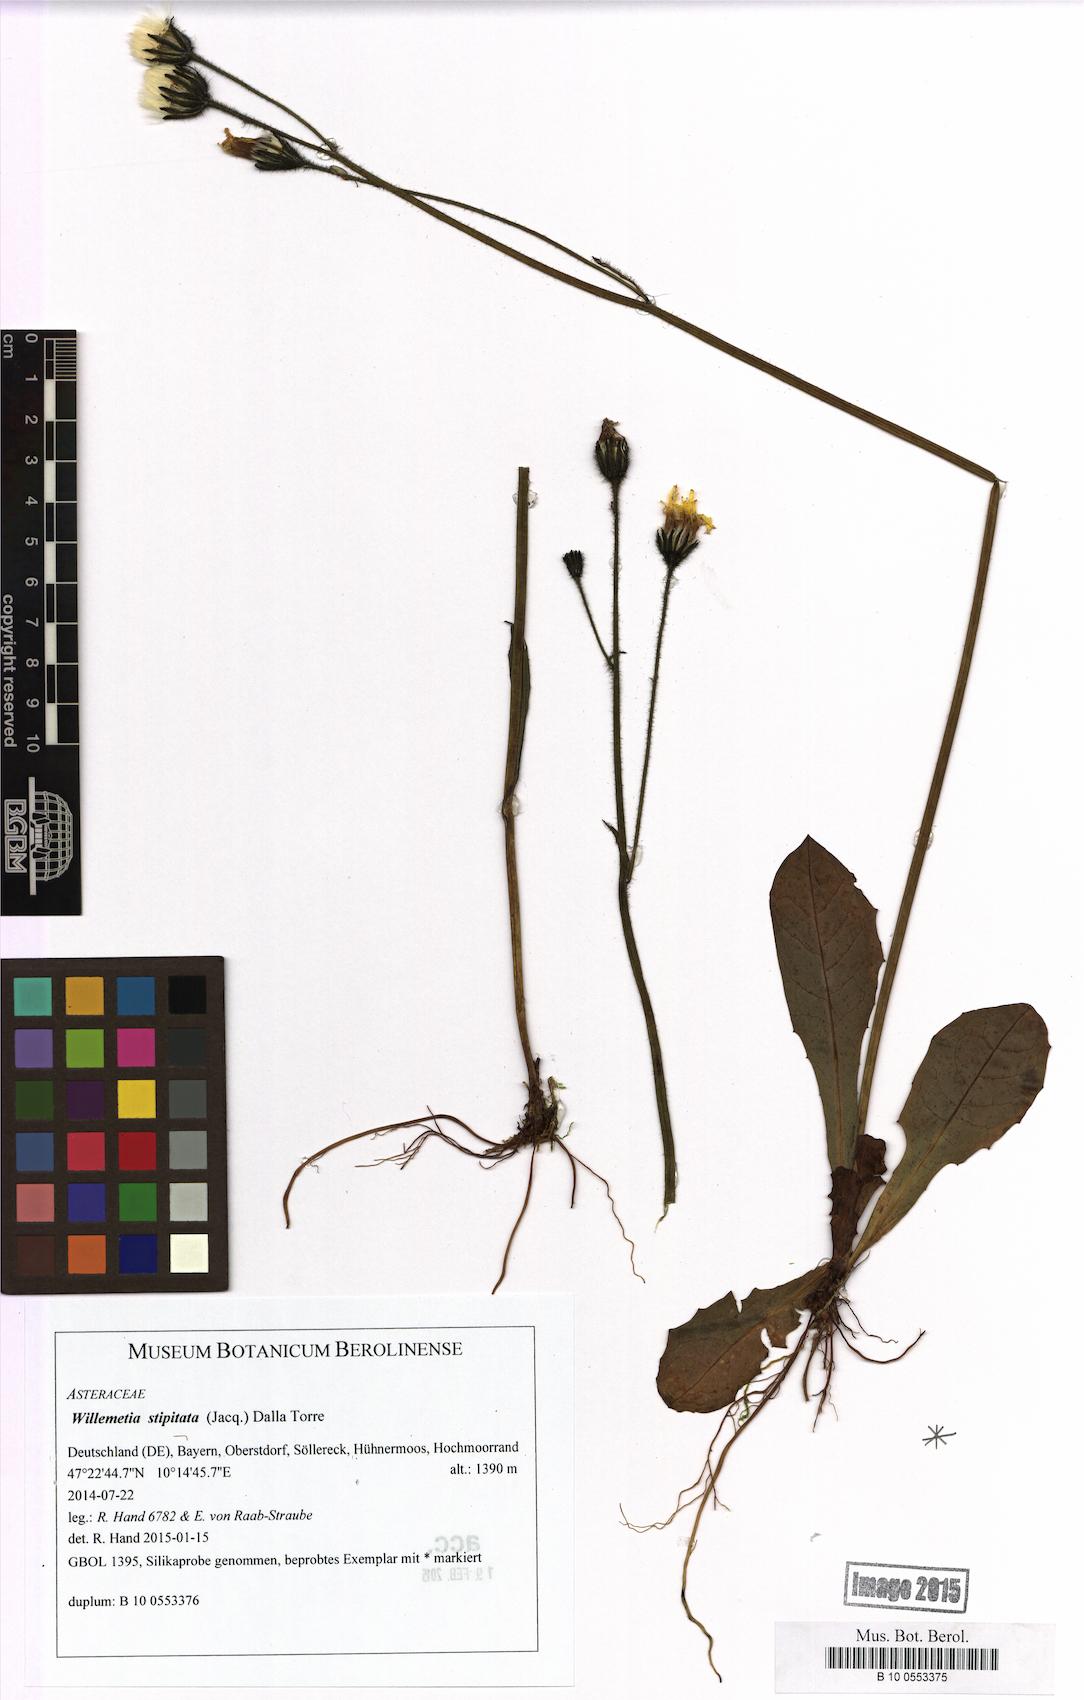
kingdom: Plantae
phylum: Tracheophyta
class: Magnoliopsida
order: Asterales
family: Asteraceae
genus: Willemetia
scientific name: Willemetia stipitata
